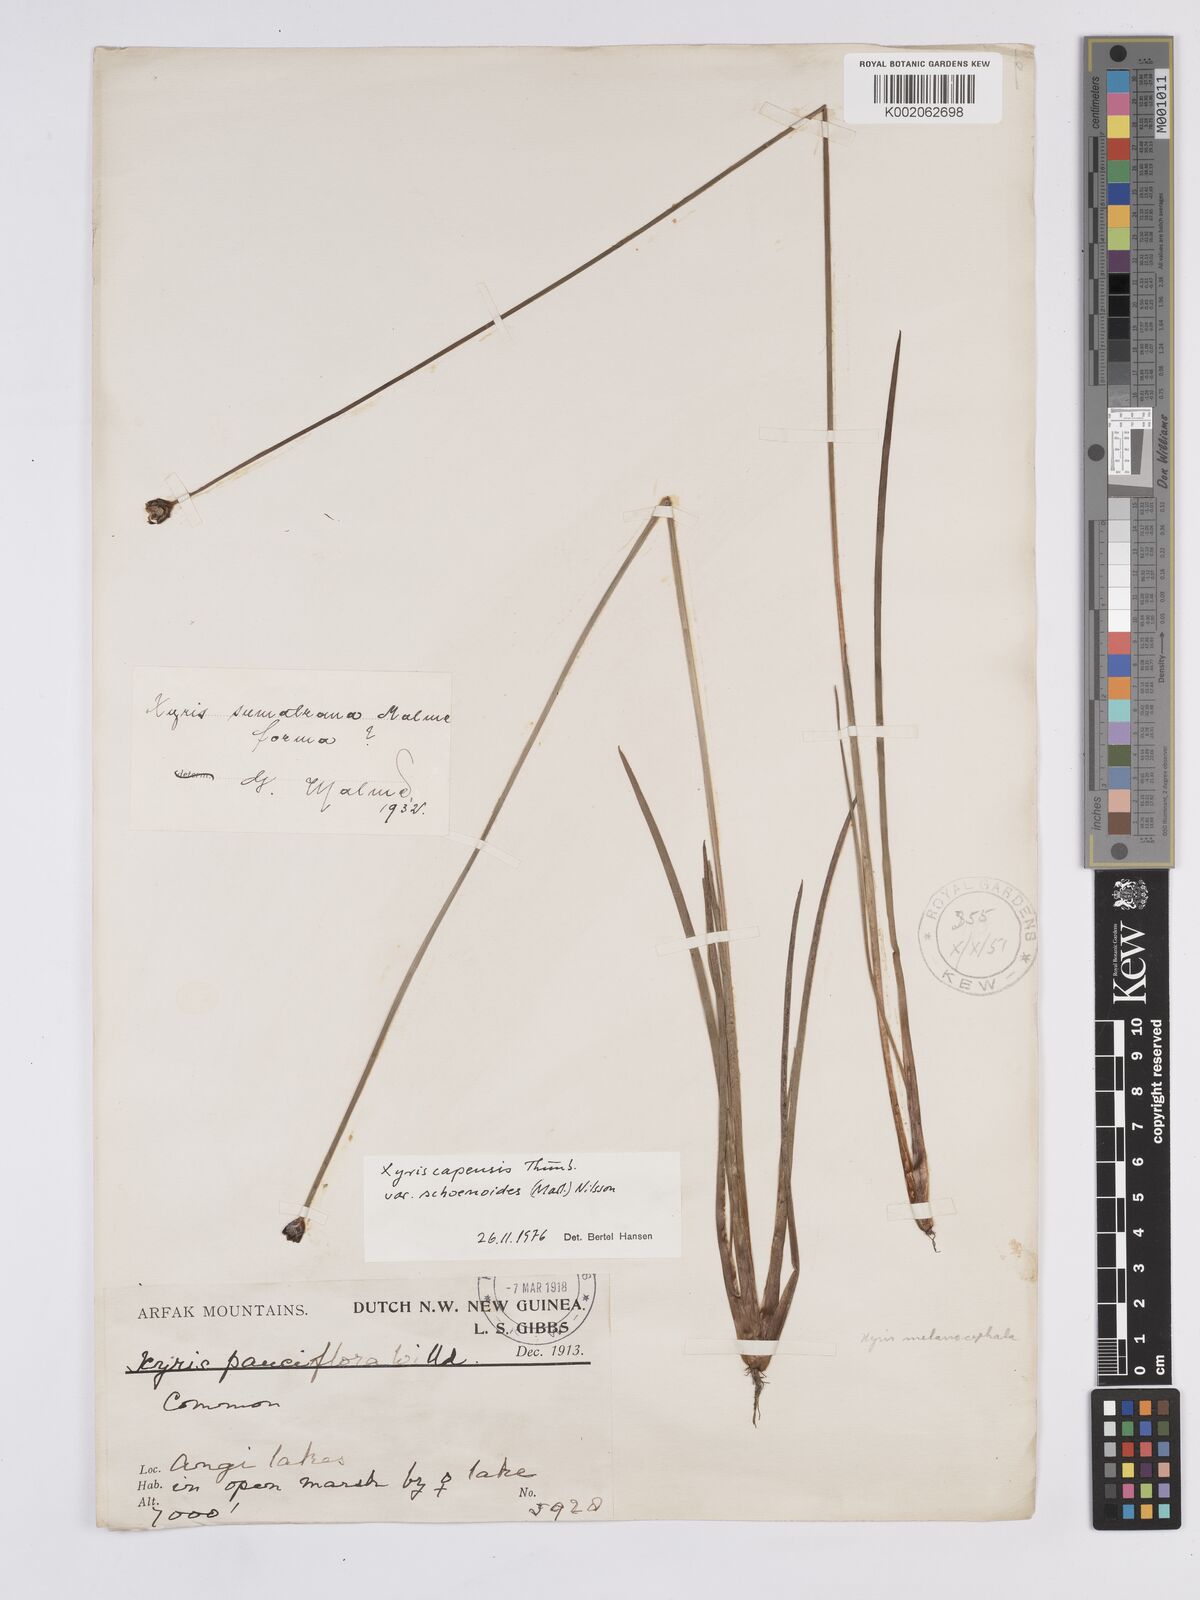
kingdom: Plantae
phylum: Tracheophyta
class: Liliopsida
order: Poales
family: Xyridaceae
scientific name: Xyridaceae
